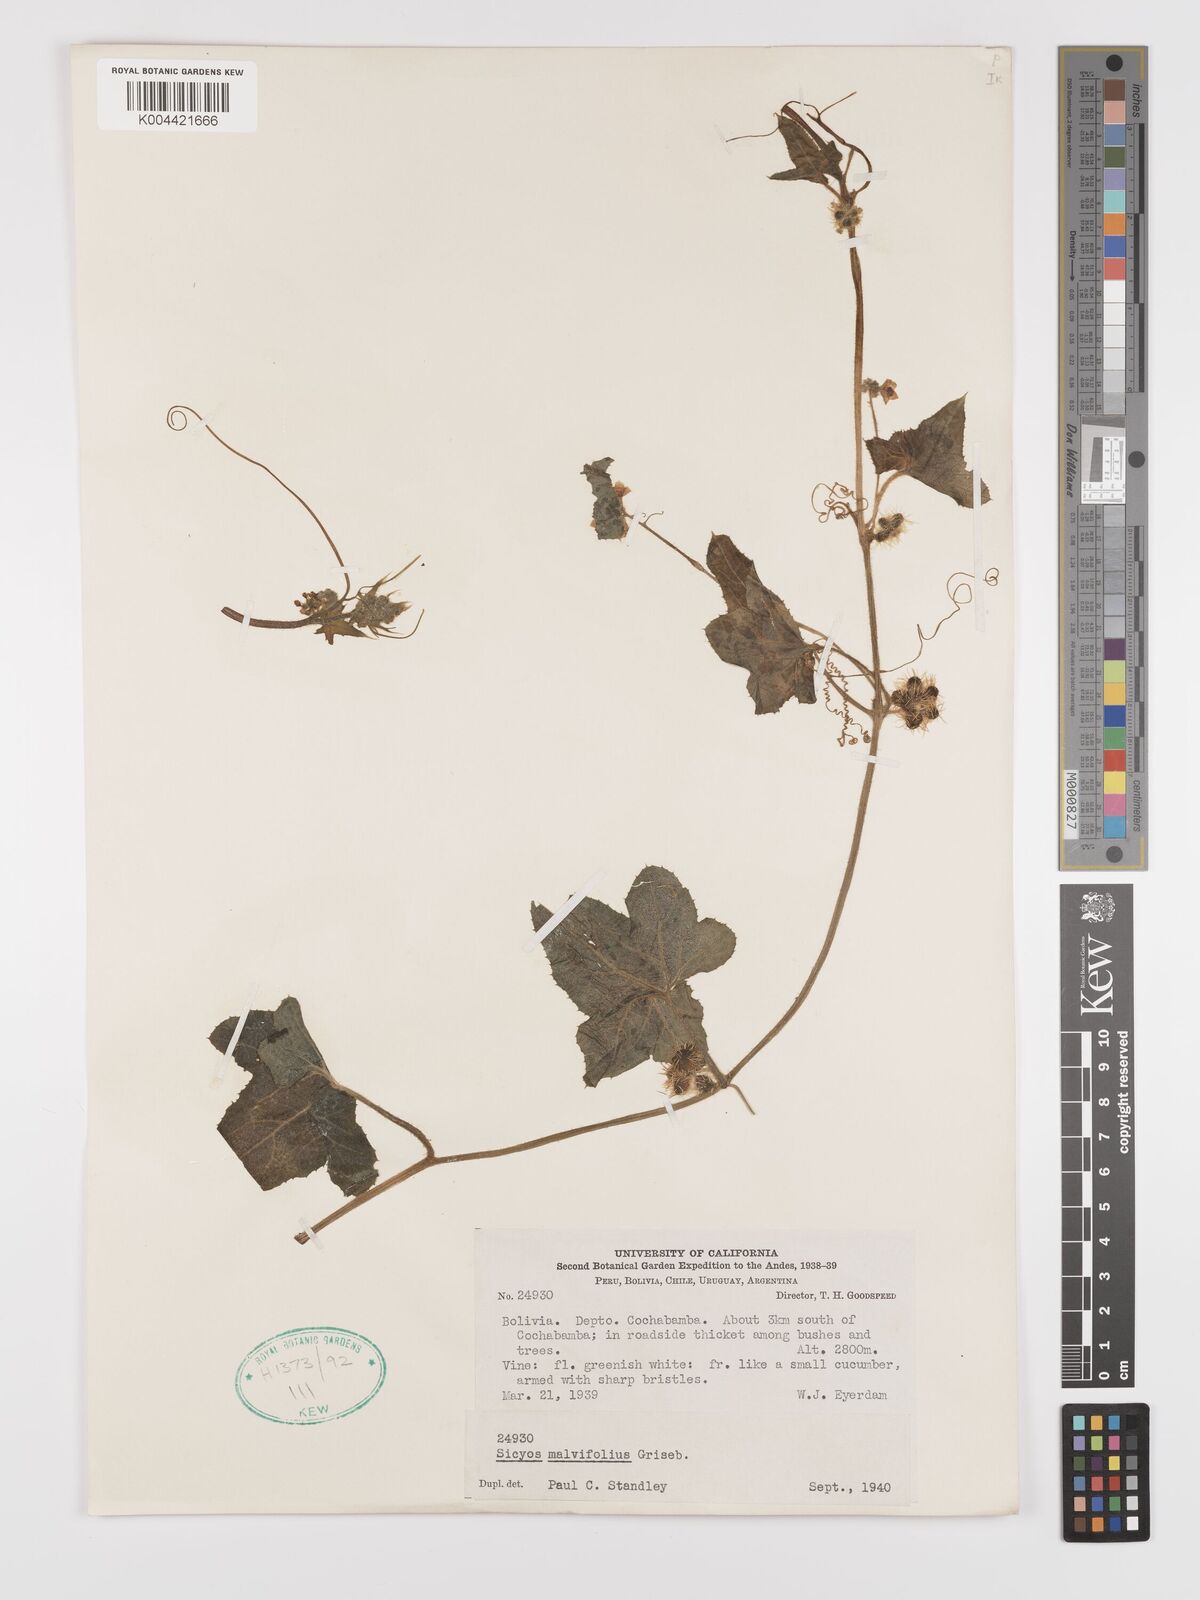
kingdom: Plantae
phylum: Tracheophyta
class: Magnoliopsida
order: Cucurbitales
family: Cucurbitaceae
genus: Sicyos
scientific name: Sicyos malvifolius
